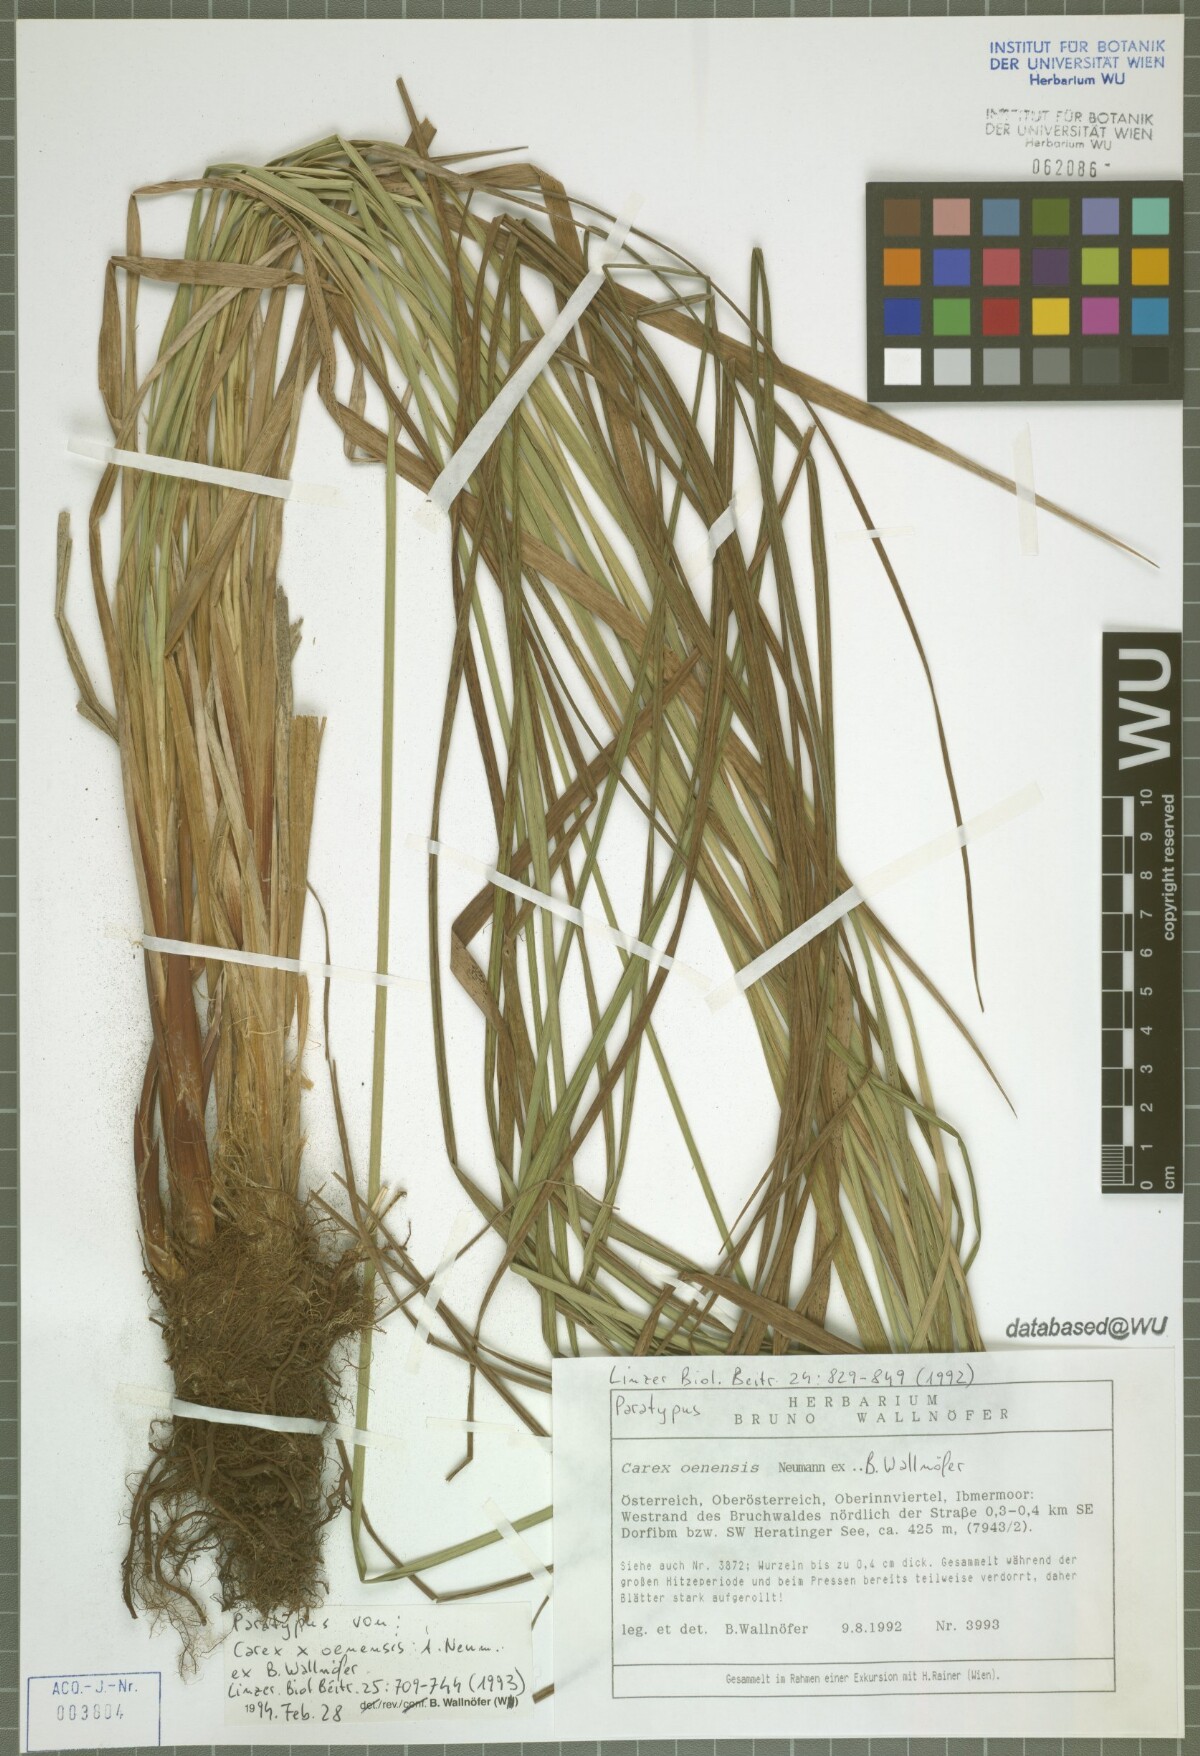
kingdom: Plantae
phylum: Tracheophyta
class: Liliopsida
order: Poales
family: Cyperaceae
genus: Carex
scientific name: Carex oenensis
